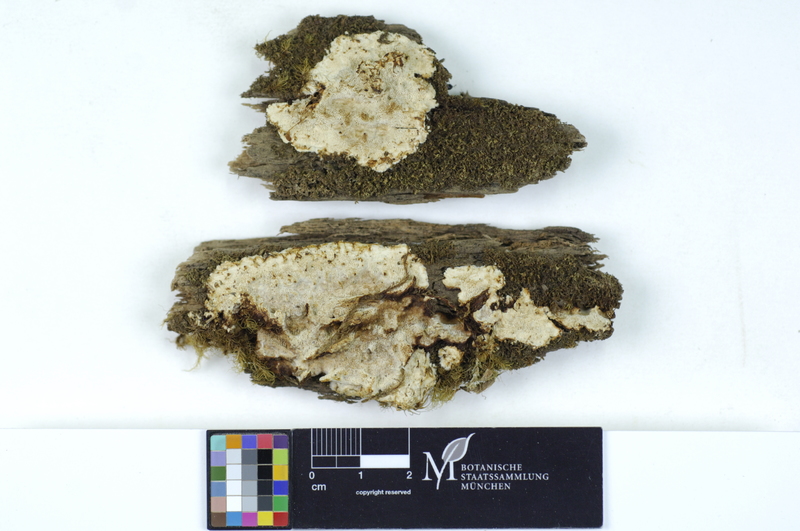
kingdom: Fungi
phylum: Basidiomycota
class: Agaricomycetes
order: Polyporales
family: Fomitopsidaceae
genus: Anthoporia
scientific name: Anthoporia albobrunnea
